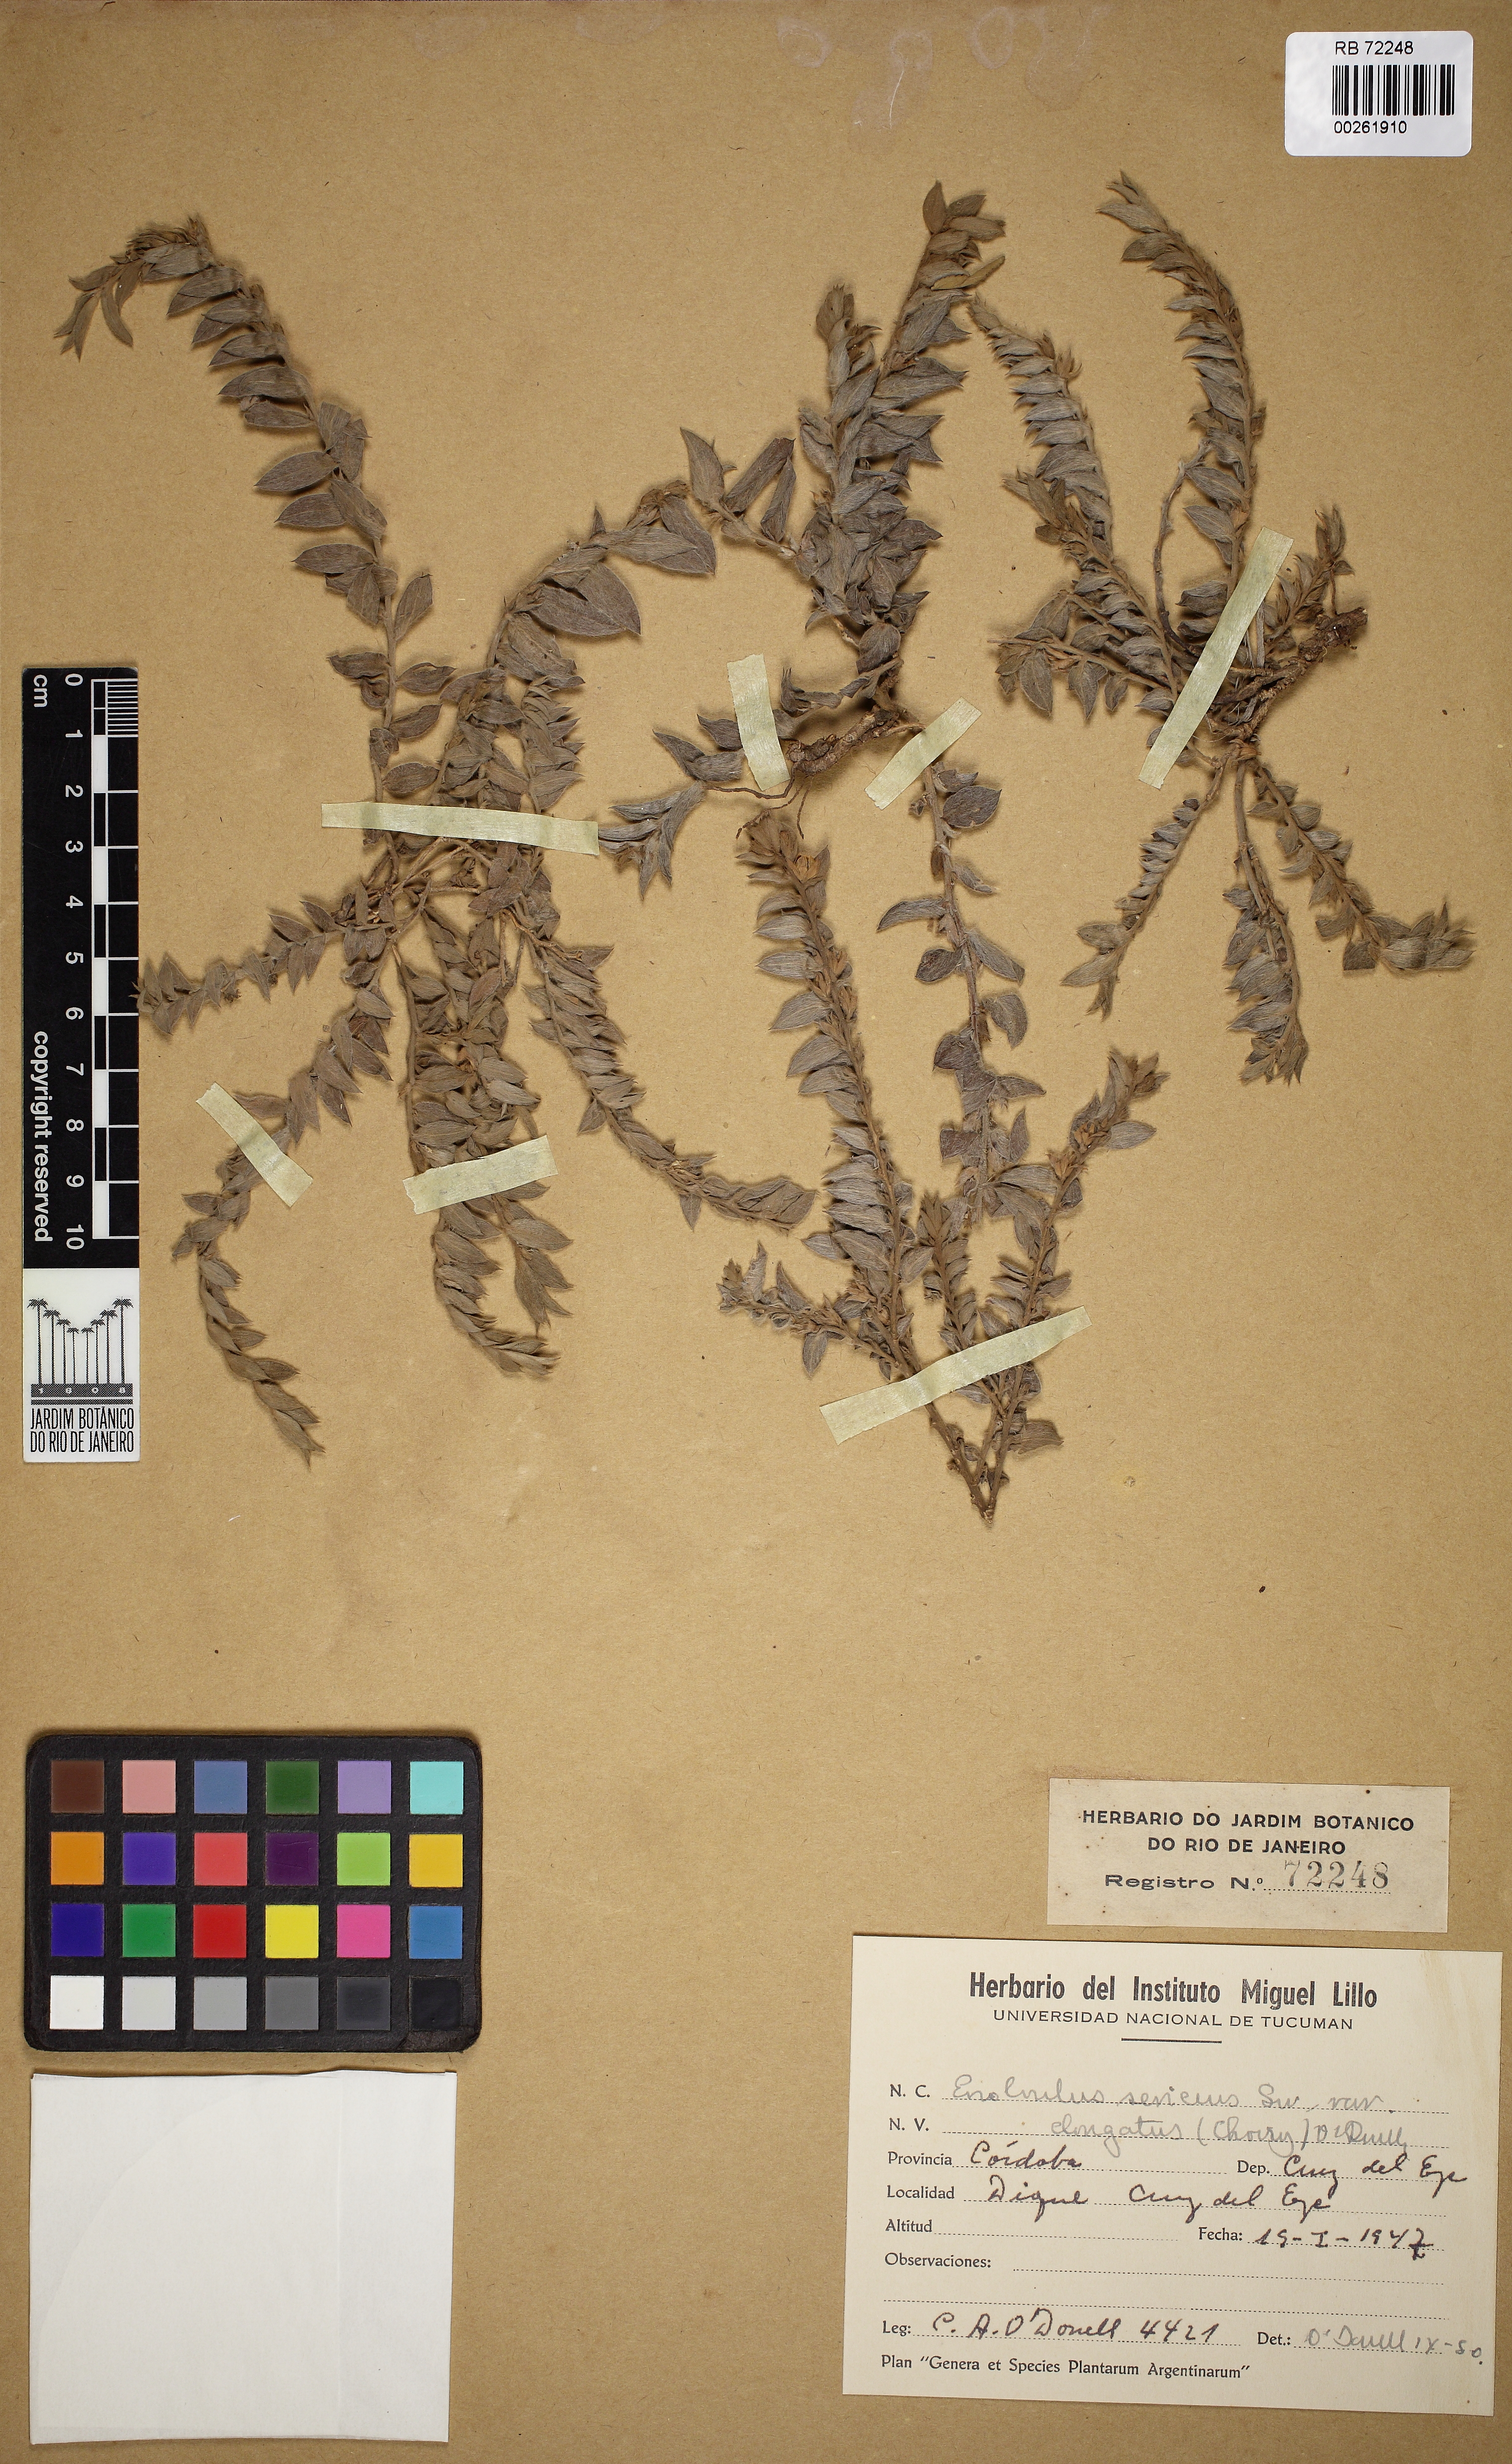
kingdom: Plantae
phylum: Tracheophyta
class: Magnoliopsida
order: Solanales
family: Convolvulaceae
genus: Evolvulus
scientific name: Evolvulus sericeus
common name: Blue dots
